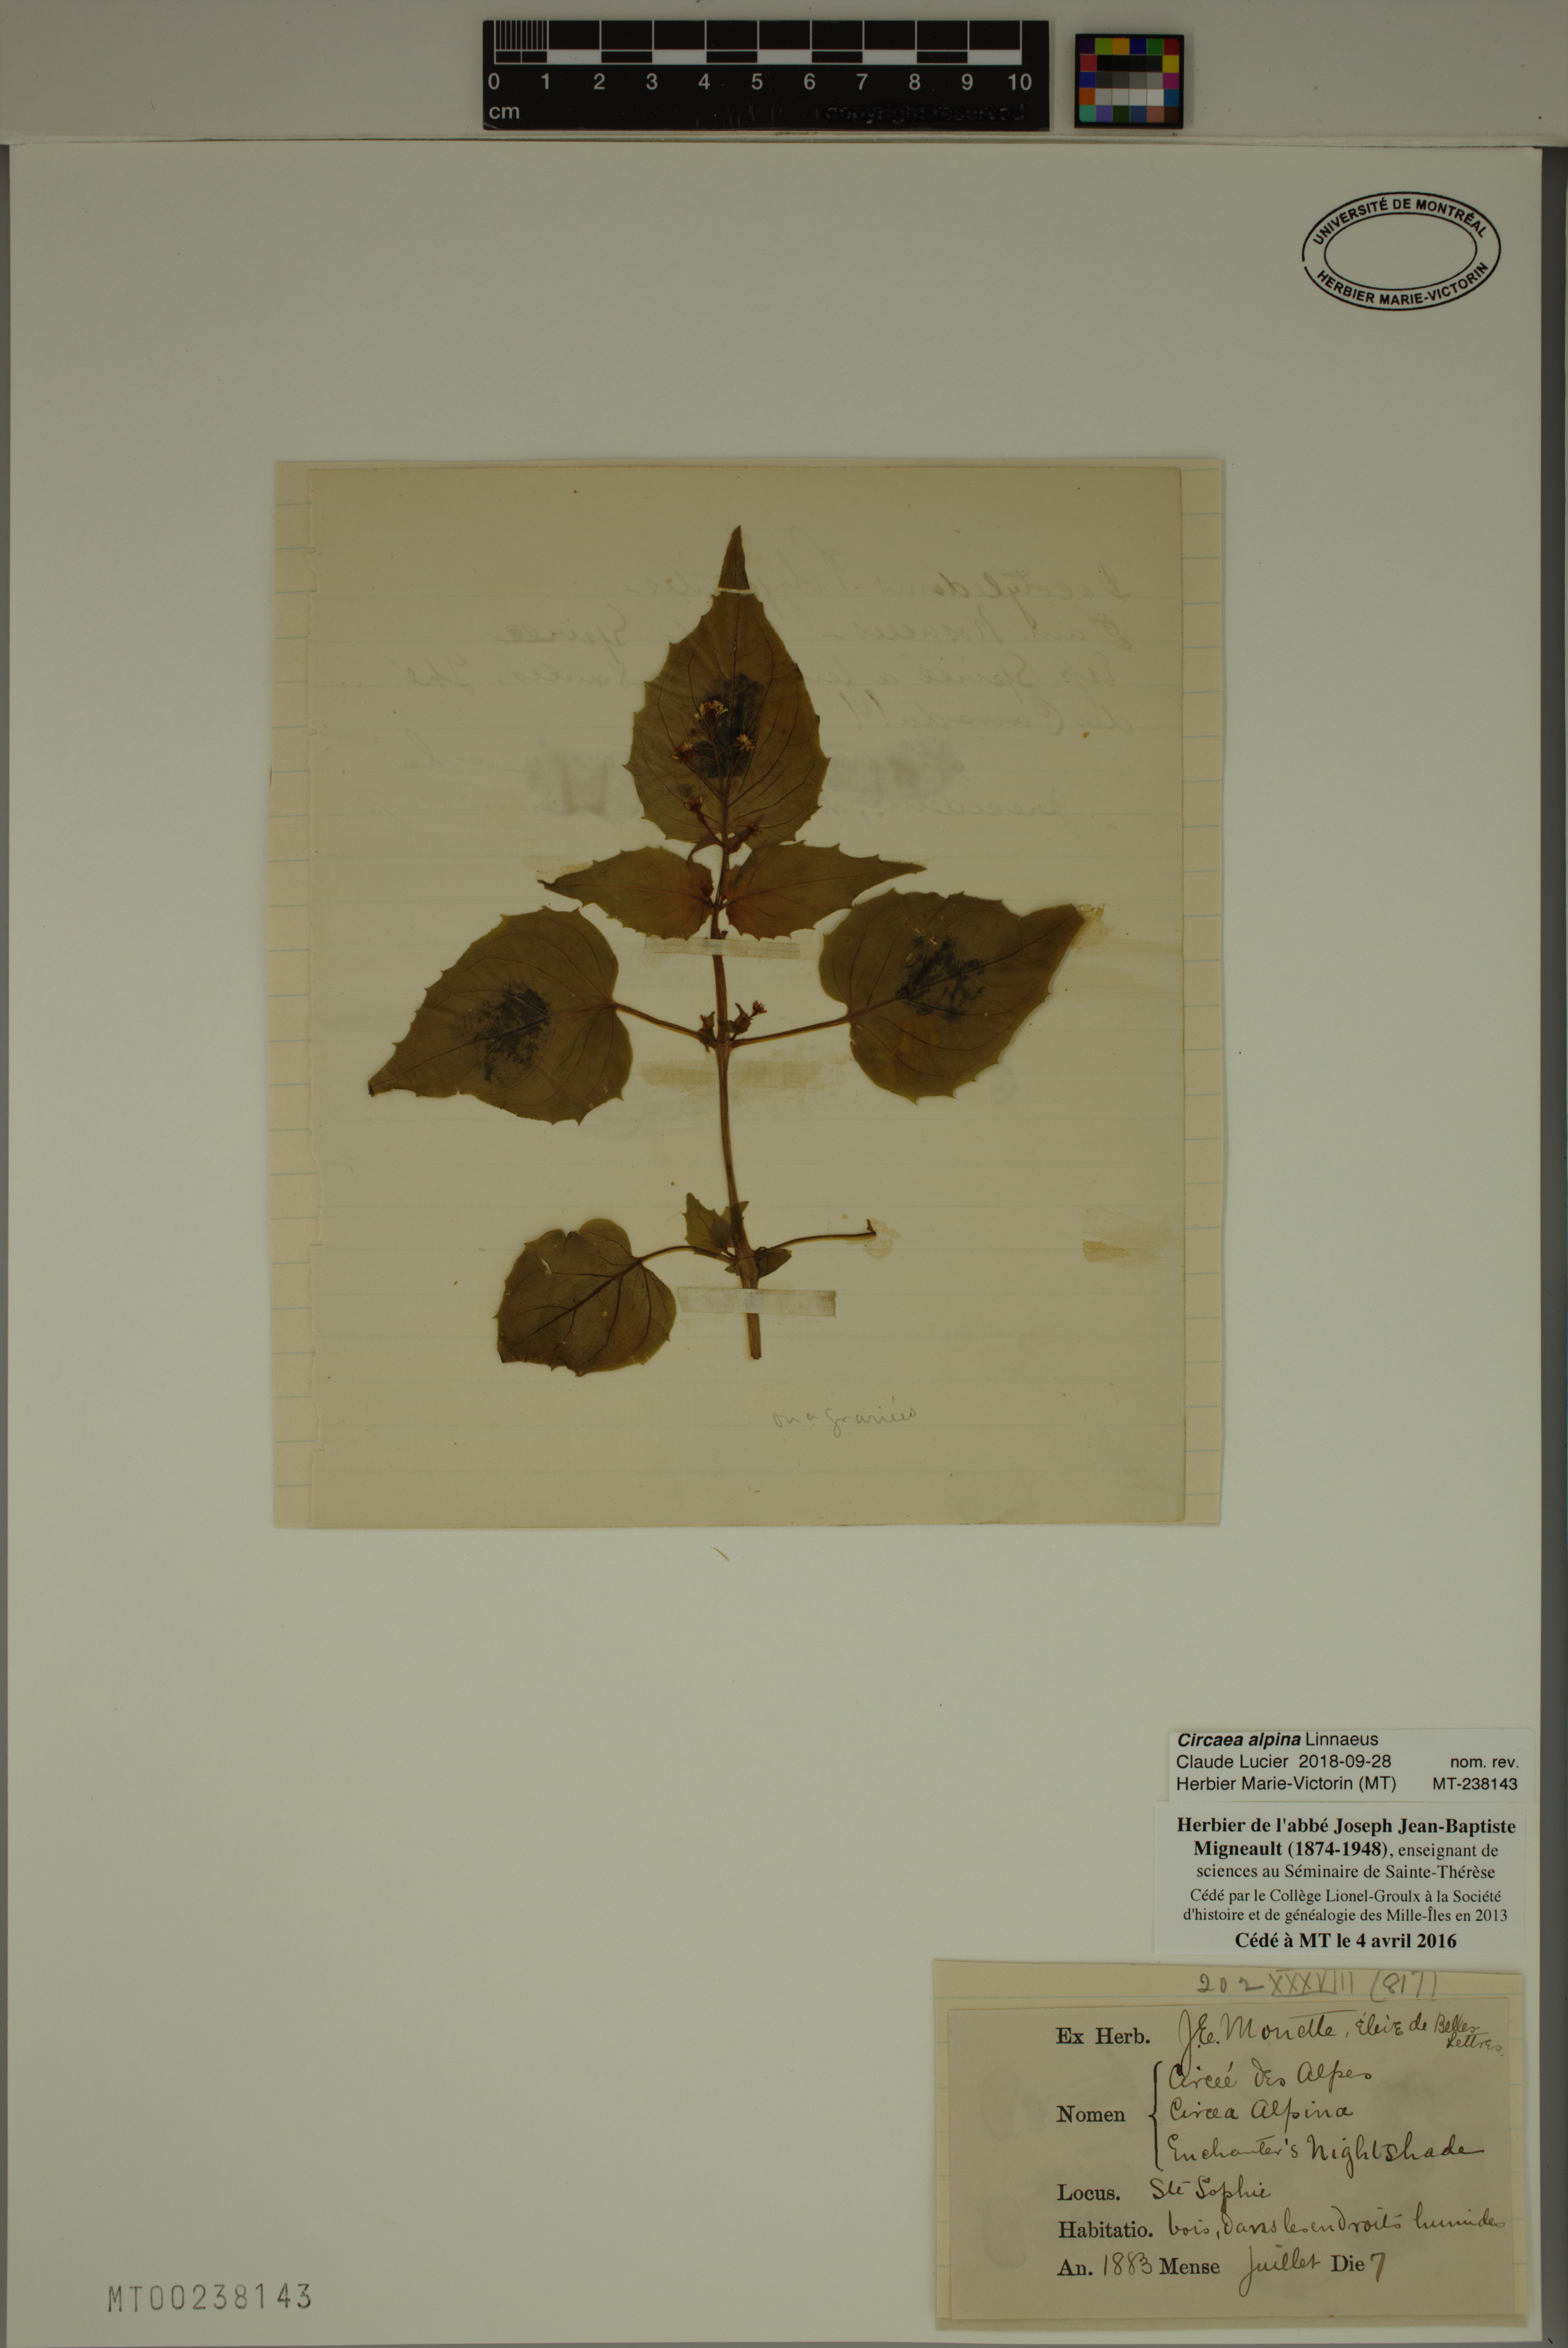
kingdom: Plantae
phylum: Tracheophyta
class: Magnoliopsida
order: Myrtales
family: Onagraceae
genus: Circaea
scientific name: Circaea alpina
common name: Alpine enchanter's-nightshade
